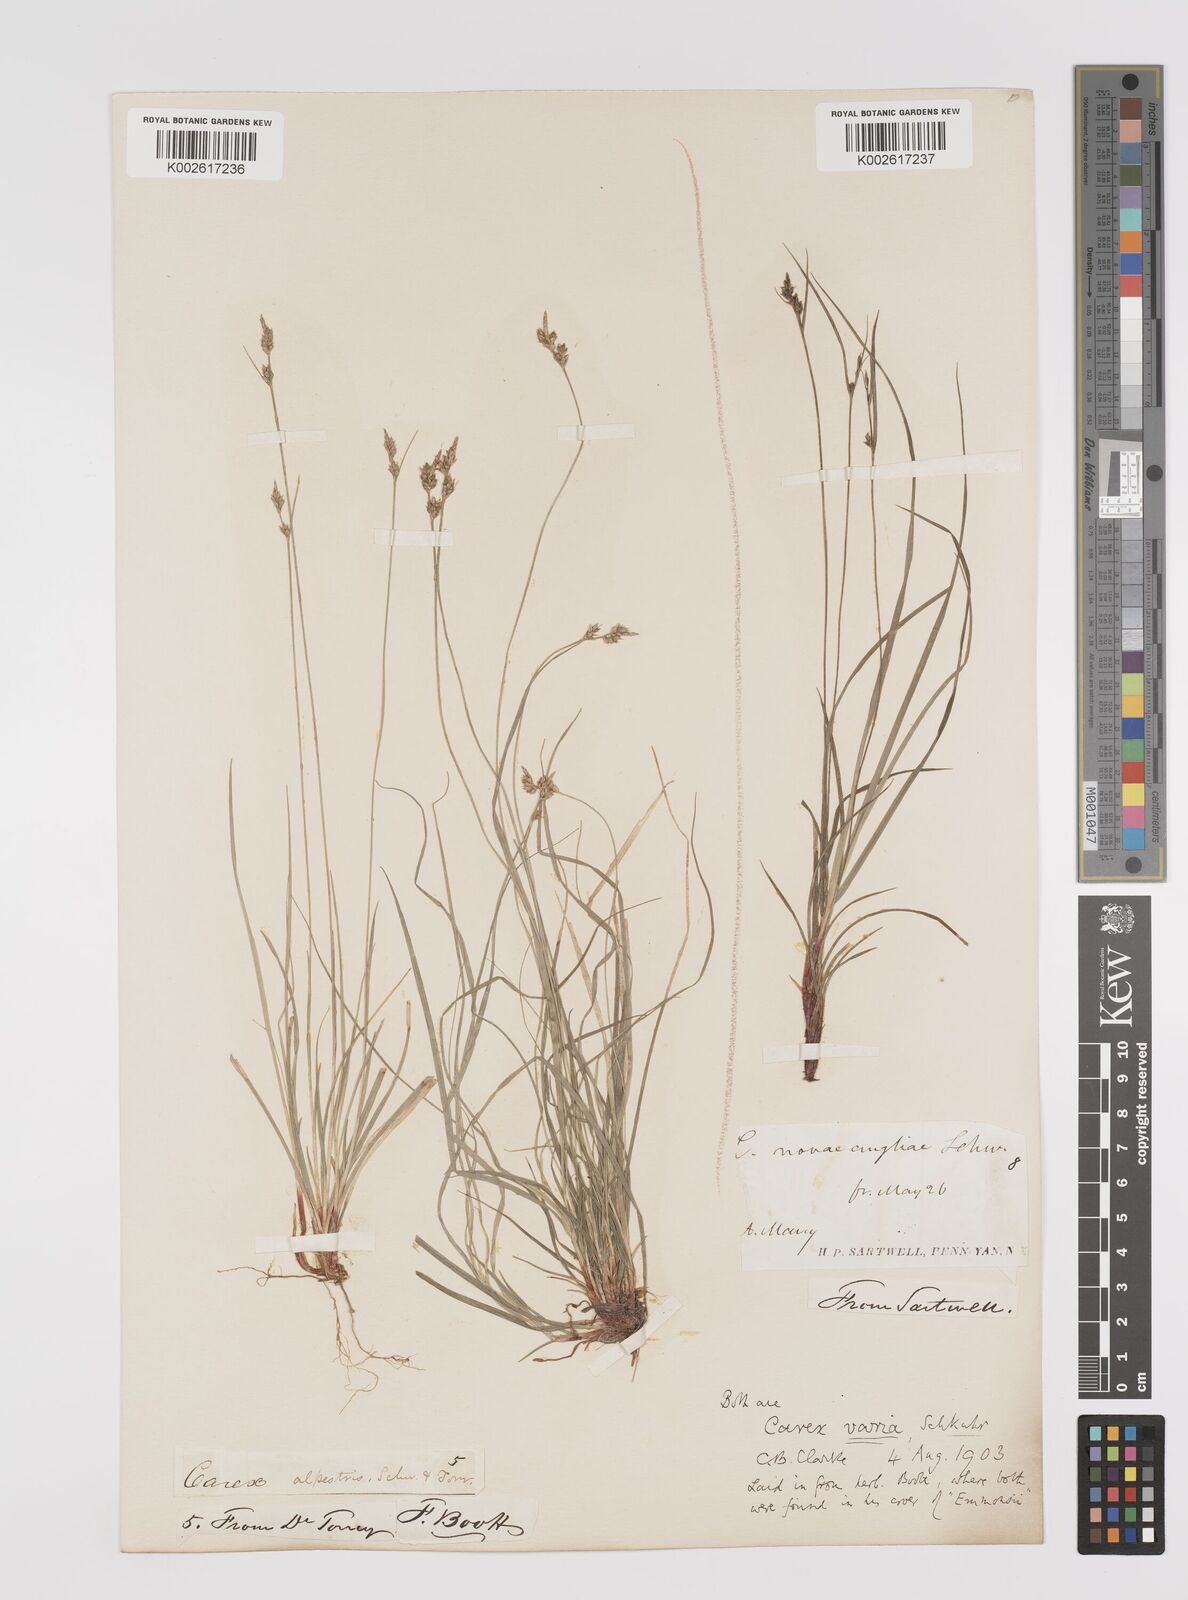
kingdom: Plantae
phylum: Tracheophyta
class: Liliopsida
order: Poales
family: Cyperaceae
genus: Carex
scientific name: Carex albicans
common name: Bellow-beaked sedge
